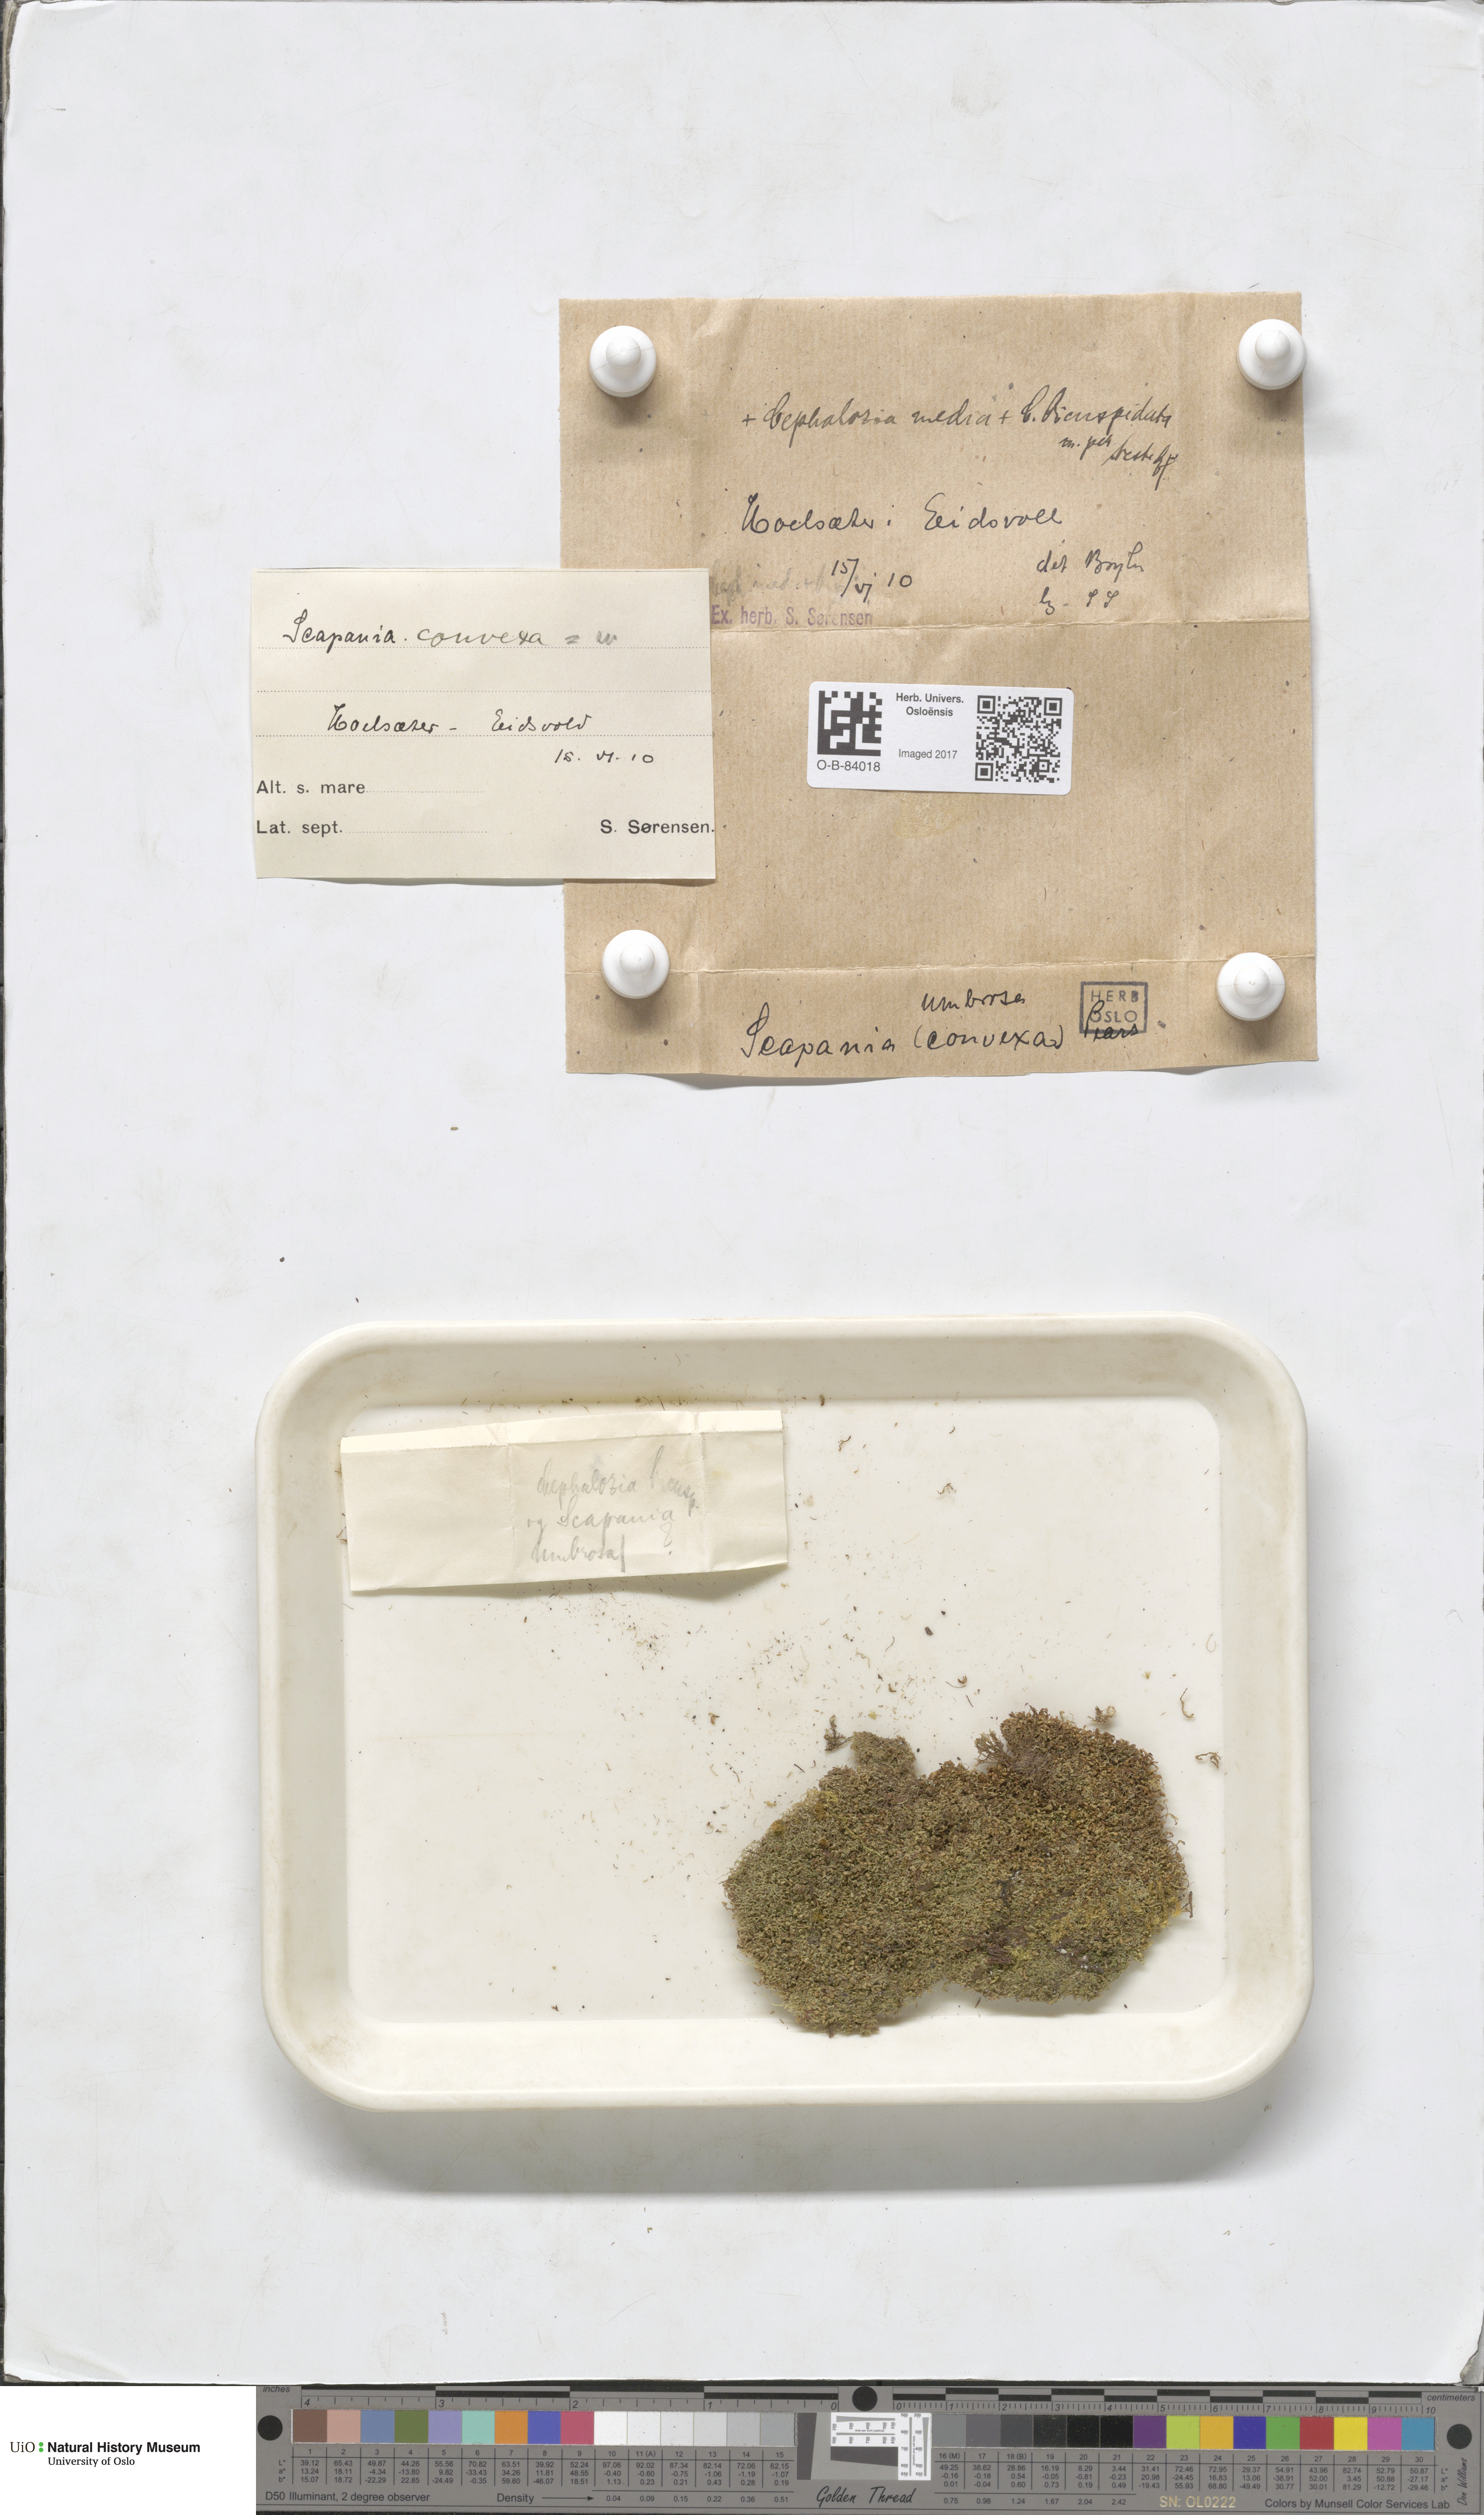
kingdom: Plantae
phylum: Marchantiophyta
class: Jungermanniopsida
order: Jungermanniales
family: Scapaniaceae
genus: Scapania
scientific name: Scapania umbrosa
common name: Shady earwort
